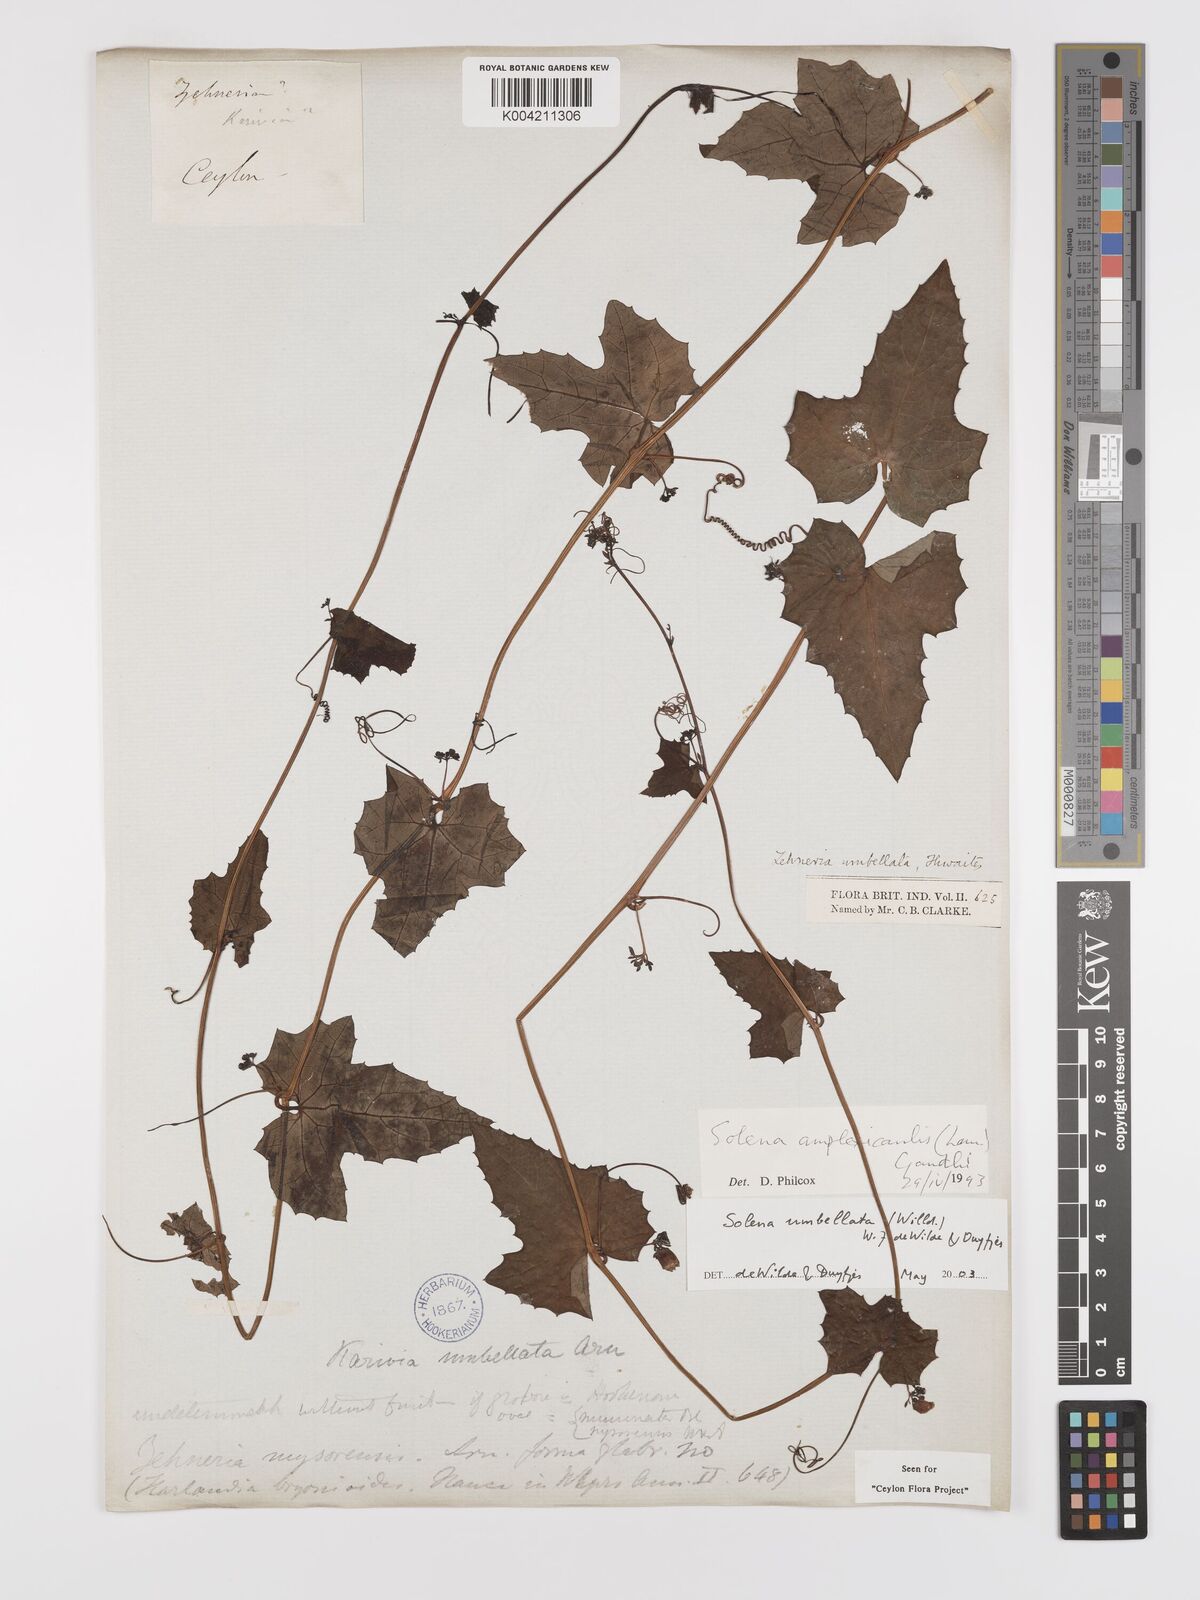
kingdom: Plantae
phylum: Tracheophyta
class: Magnoliopsida
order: Cucurbitales
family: Cucurbitaceae
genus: Solena
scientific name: Solena umbellata
